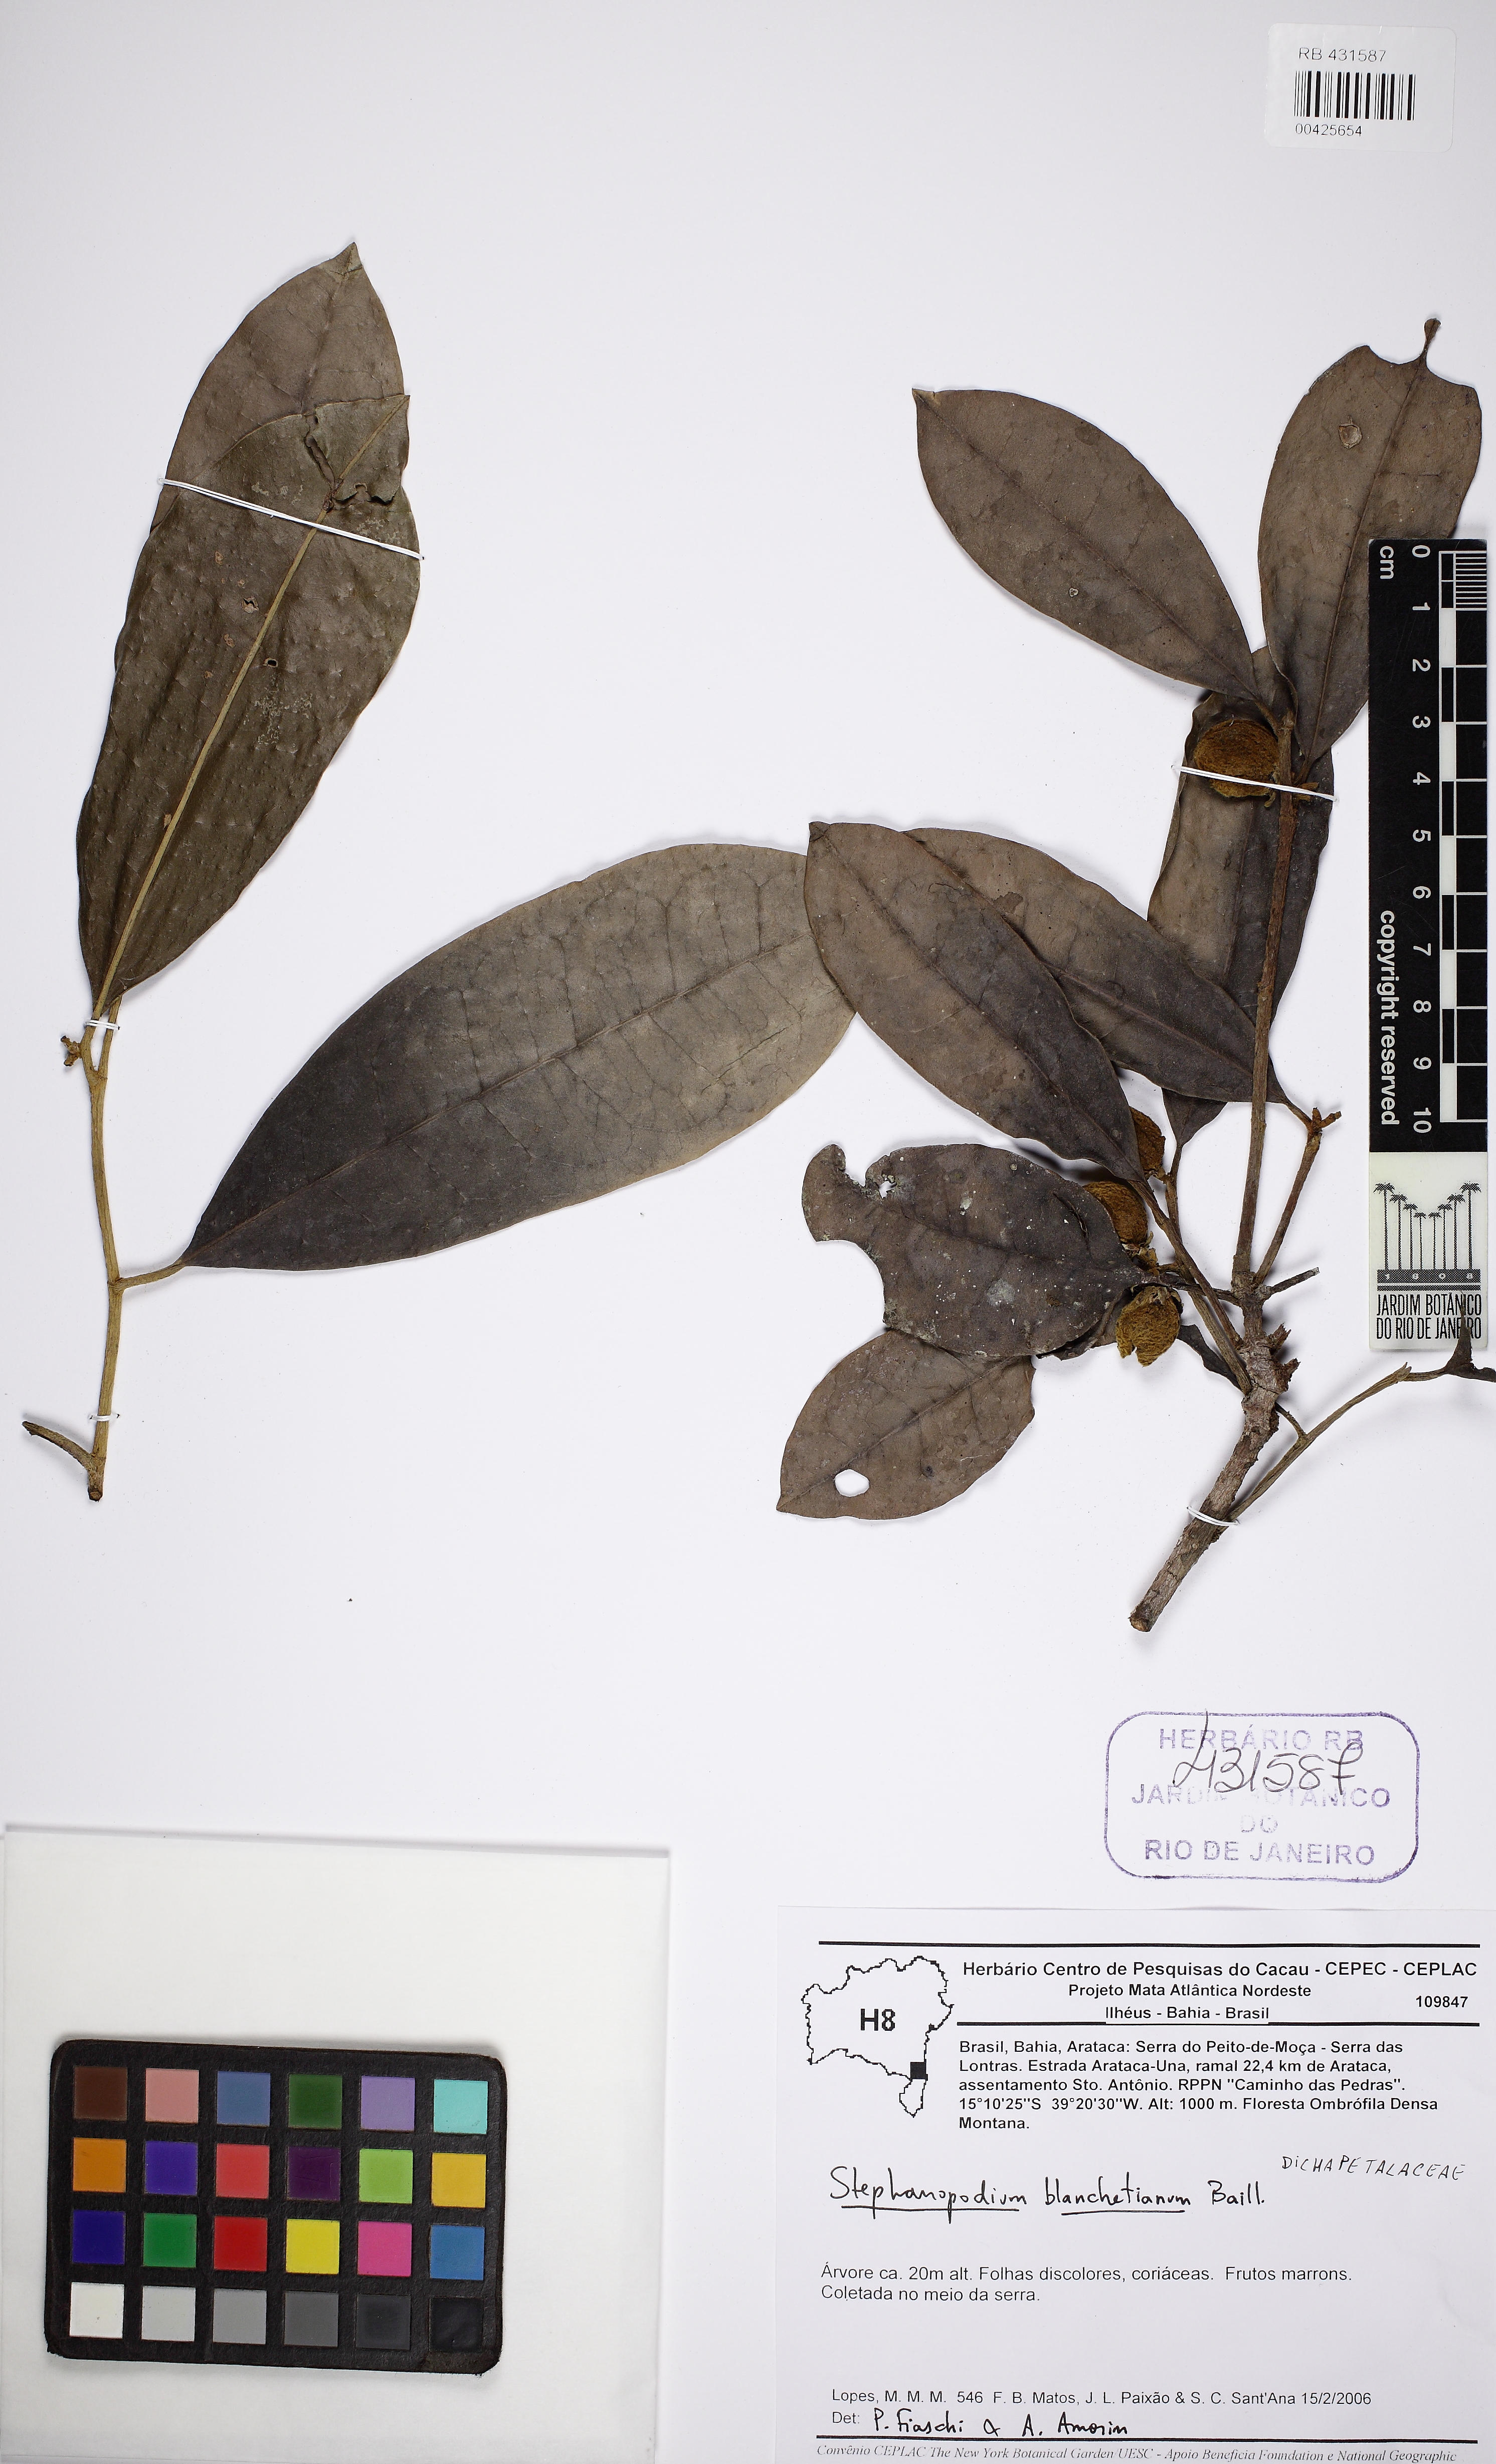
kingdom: Plantae
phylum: Tracheophyta
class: Magnoliopsida
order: Malpighiales
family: Dichapetalaceae
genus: Stephanopodium
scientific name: Stephanopodium blanchetianum
